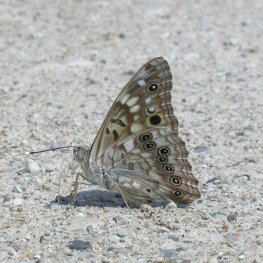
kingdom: Animalia
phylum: Arthropoda
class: Insecta
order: Lepidoptera
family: Nymphalidae
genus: Asterocampa
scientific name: Asterocampa celtis
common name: Hackberry Emperor
